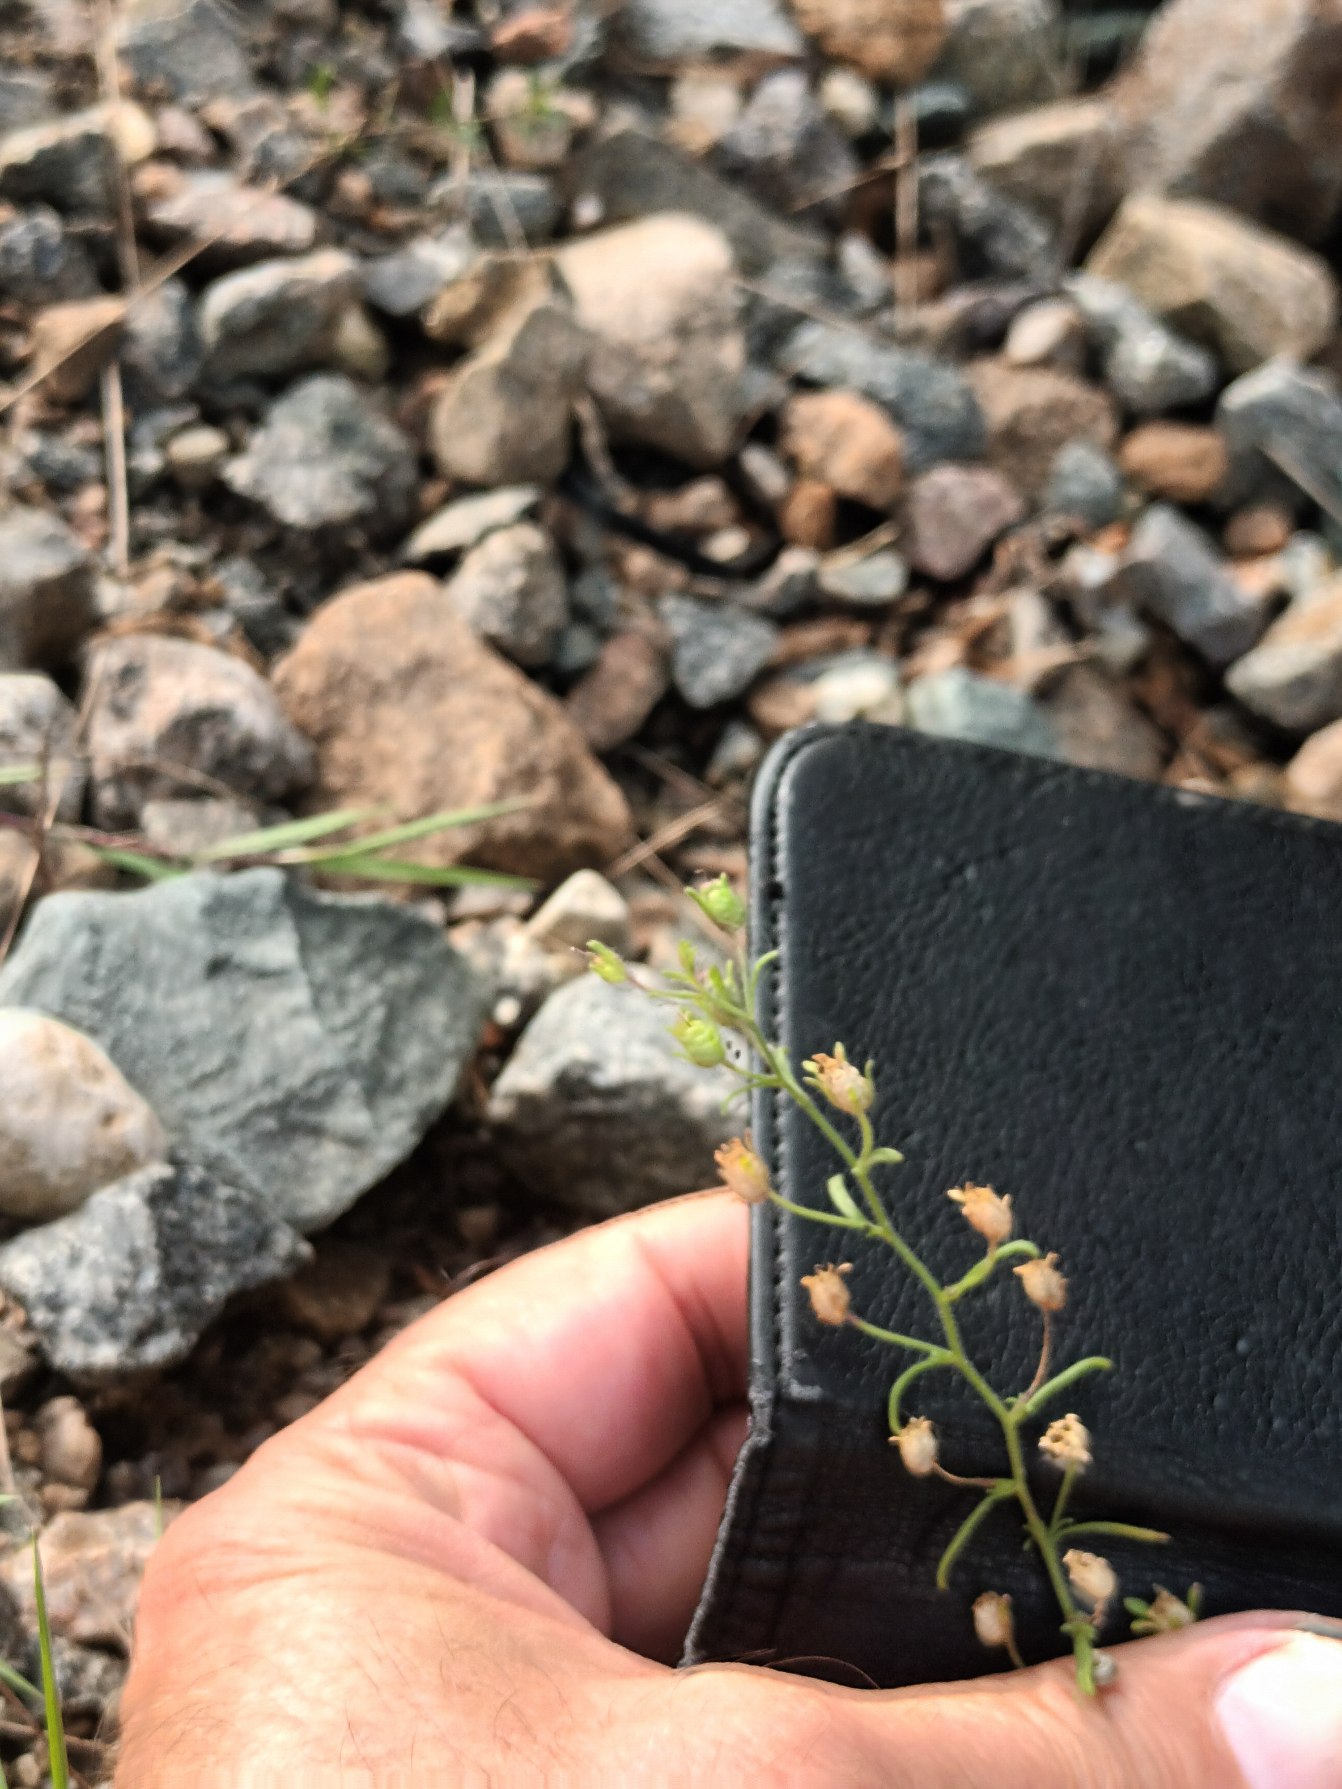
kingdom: Plantae
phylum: Tracheophyta
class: Magnoliopsida
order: Lamiales
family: Plantaginaceae
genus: Chaenorhinum
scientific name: Chaenorhinum minus
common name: Liden torskemund
